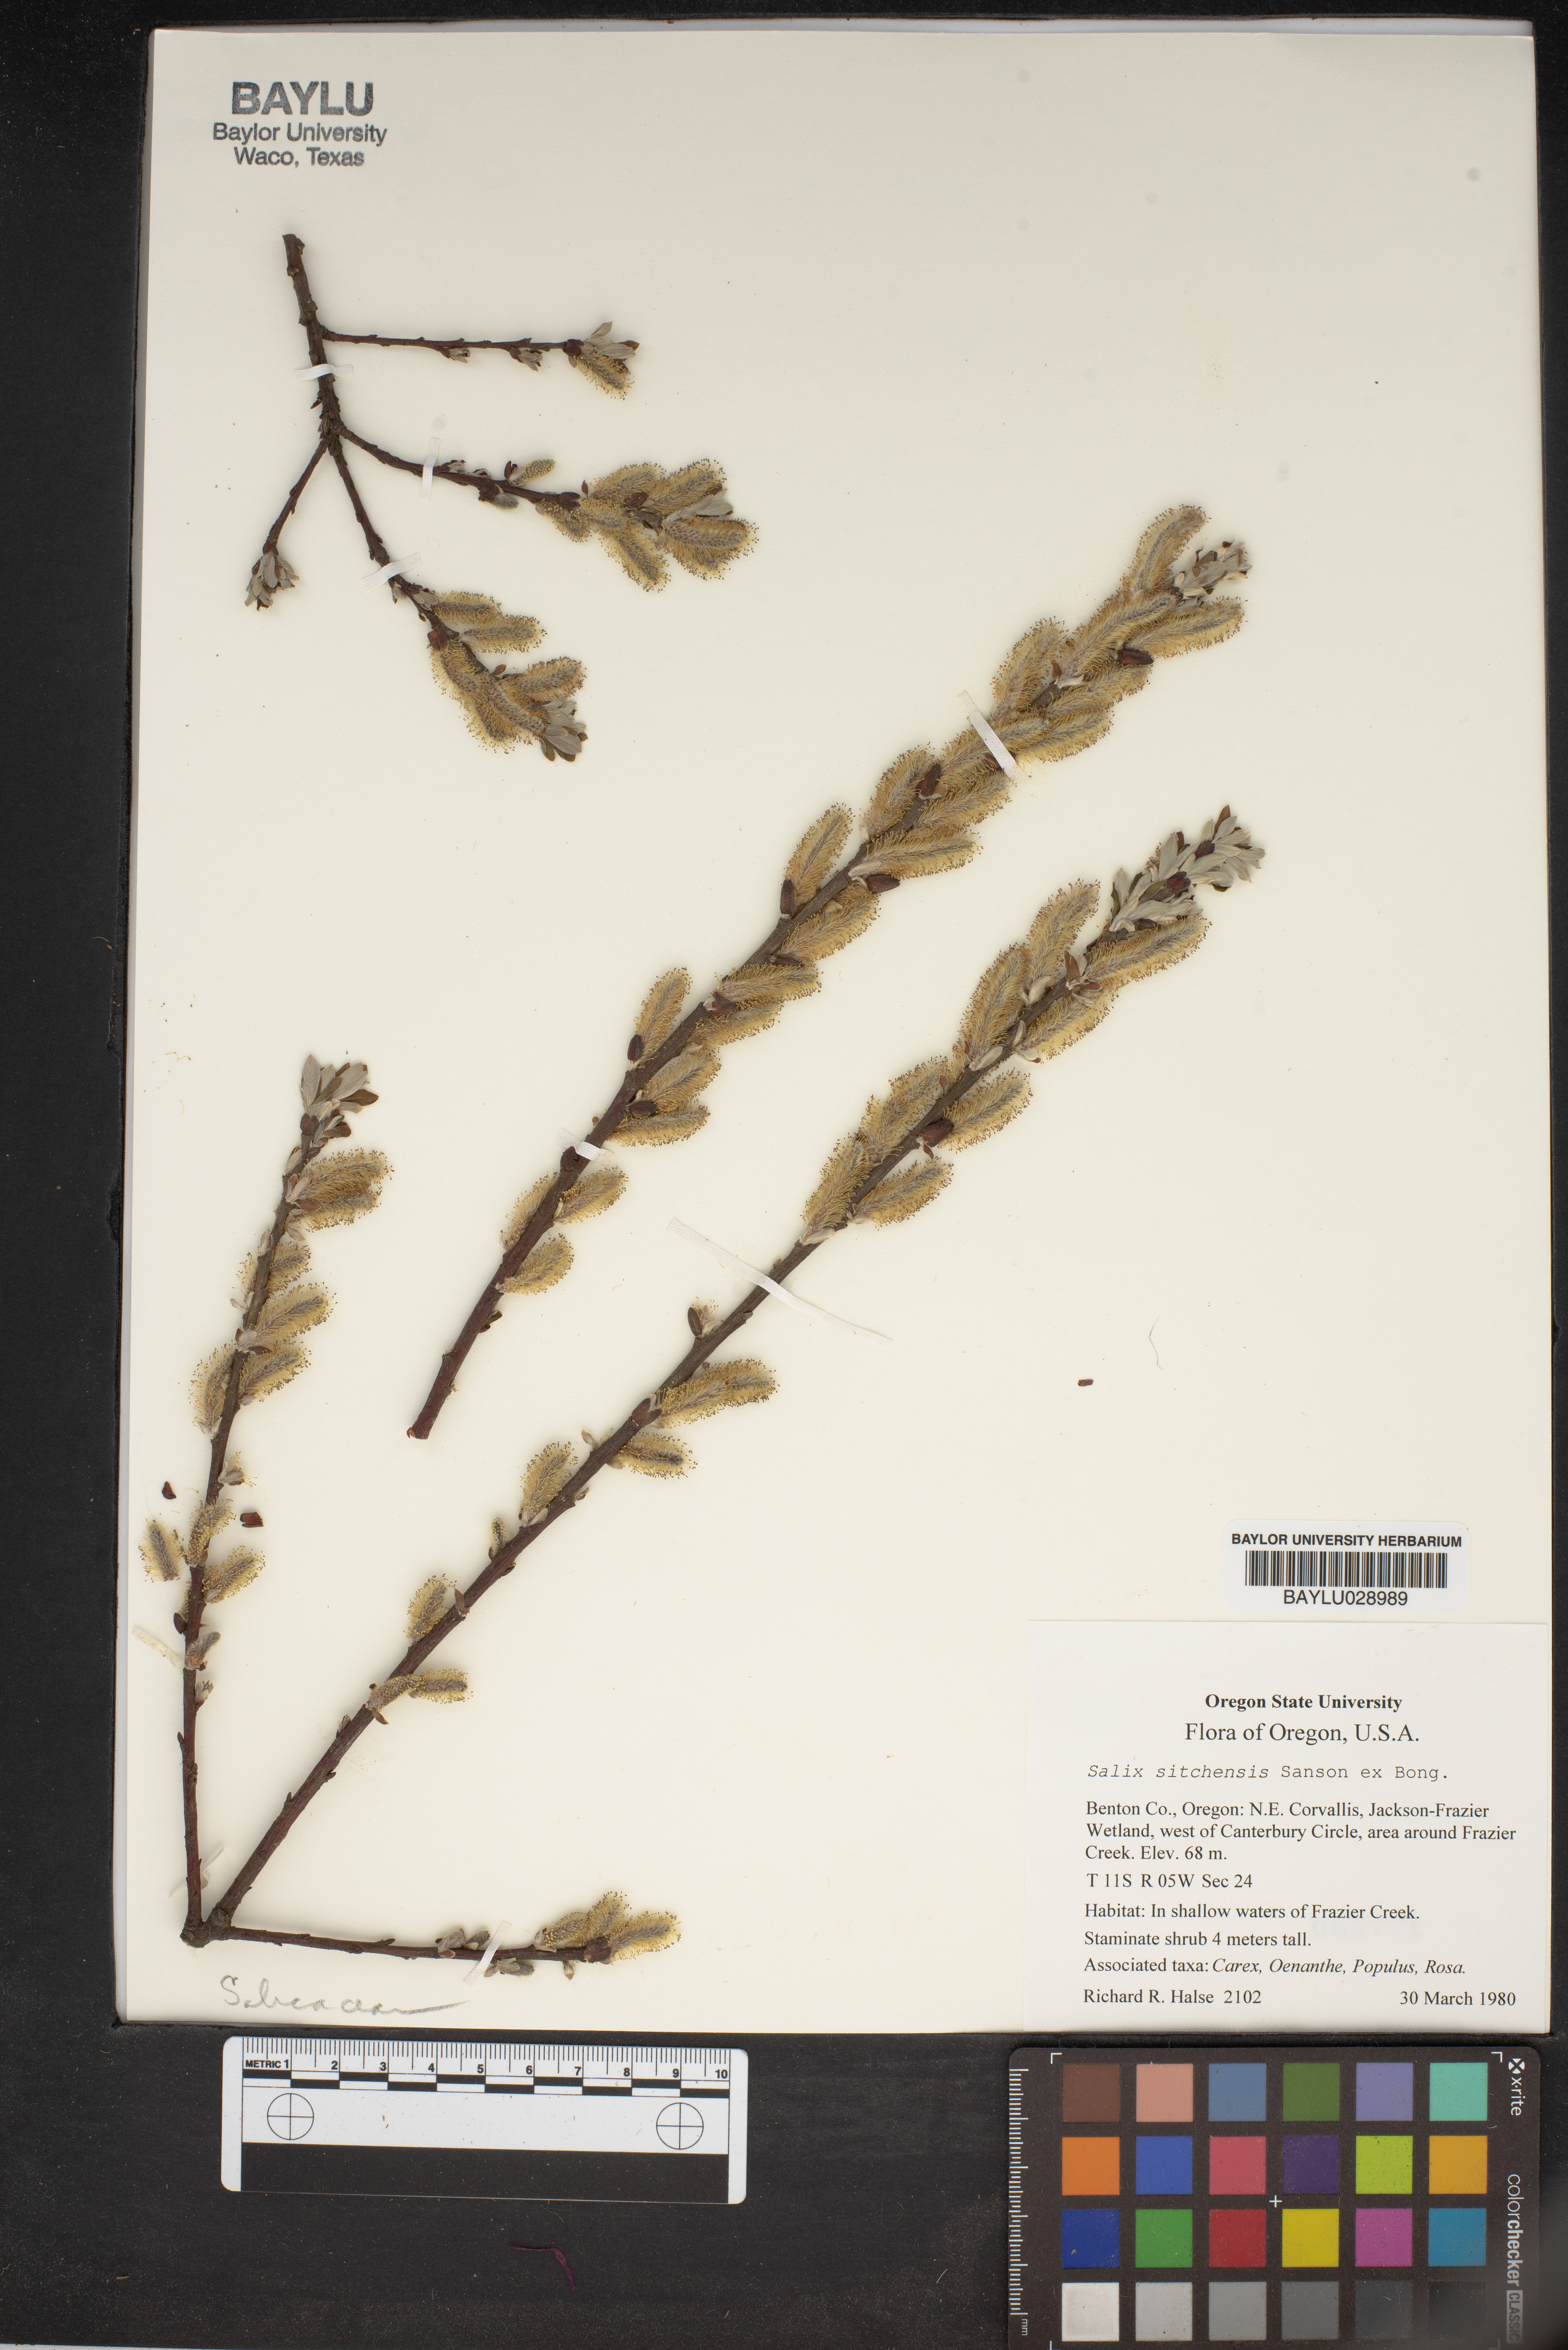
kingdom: Plantae
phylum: Tracheophyta
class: Magnoliopsida
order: Malpighiales
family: Salicaceae
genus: Salix
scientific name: Salix sitchensis
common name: Sitka willow
